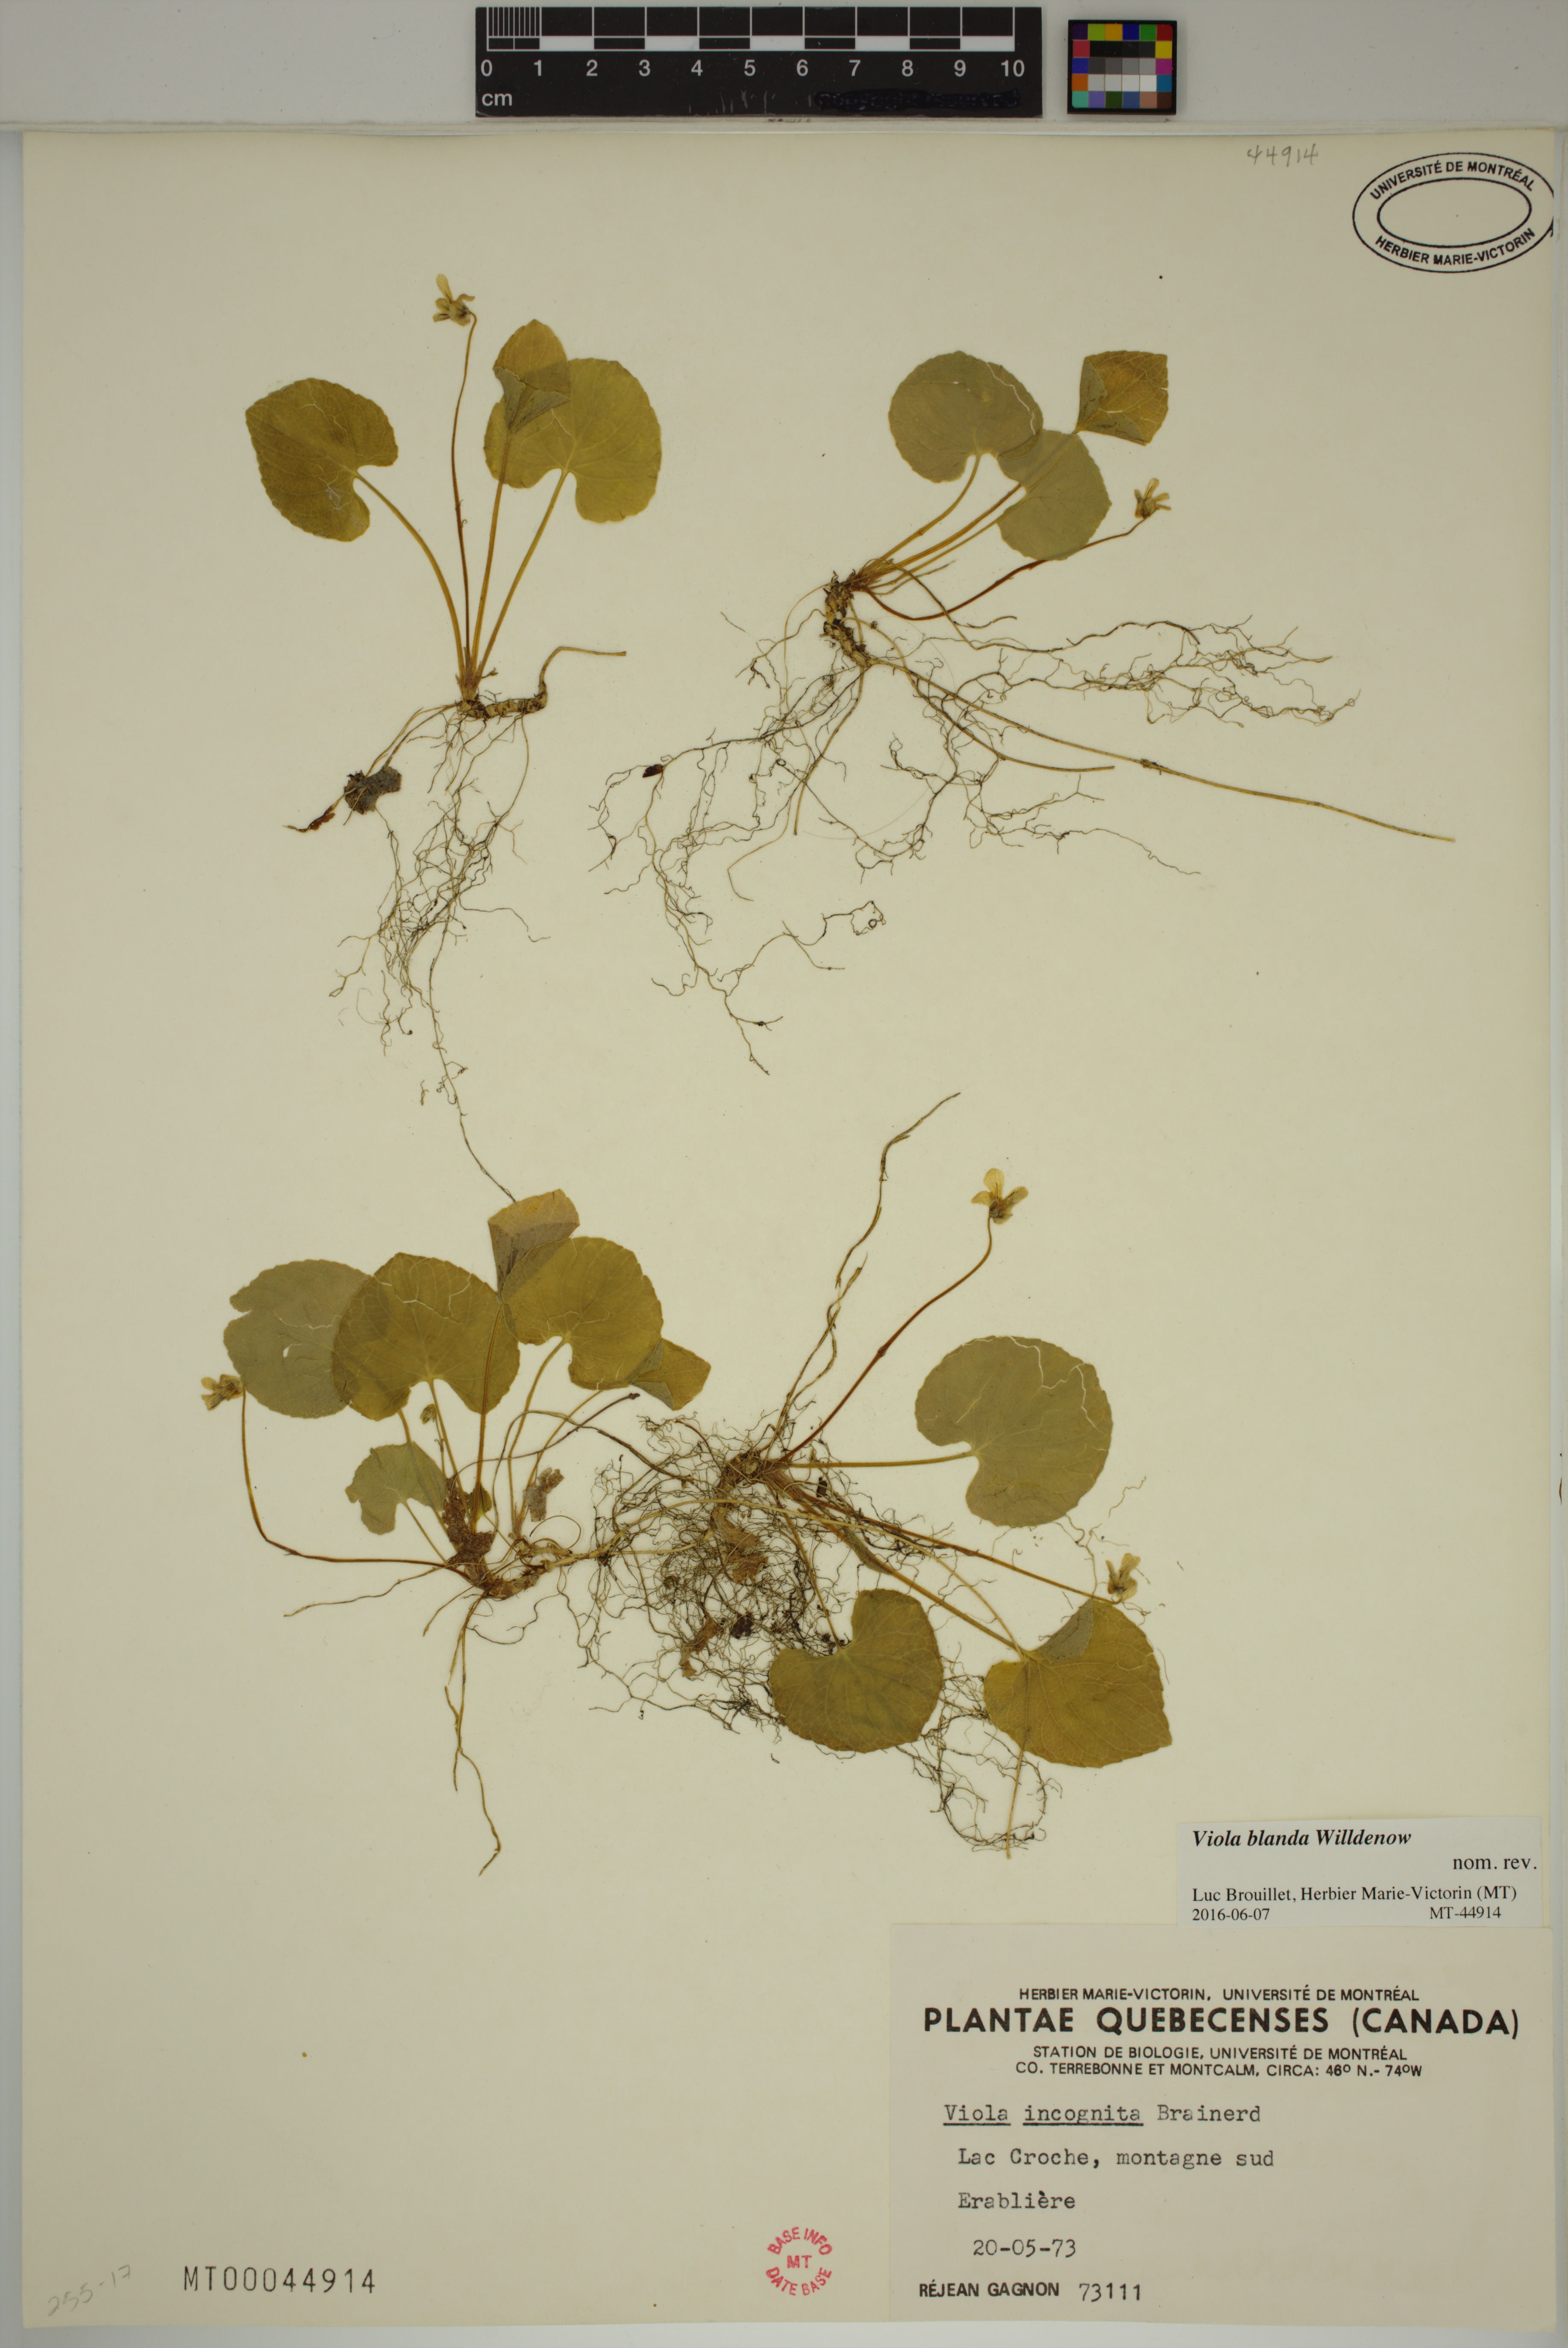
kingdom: Plantae
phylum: Tracheophyta
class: Magnoliopsida
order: Malpighiales
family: Violaceae
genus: Viola
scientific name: Viola blanda
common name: Sweet white violet
